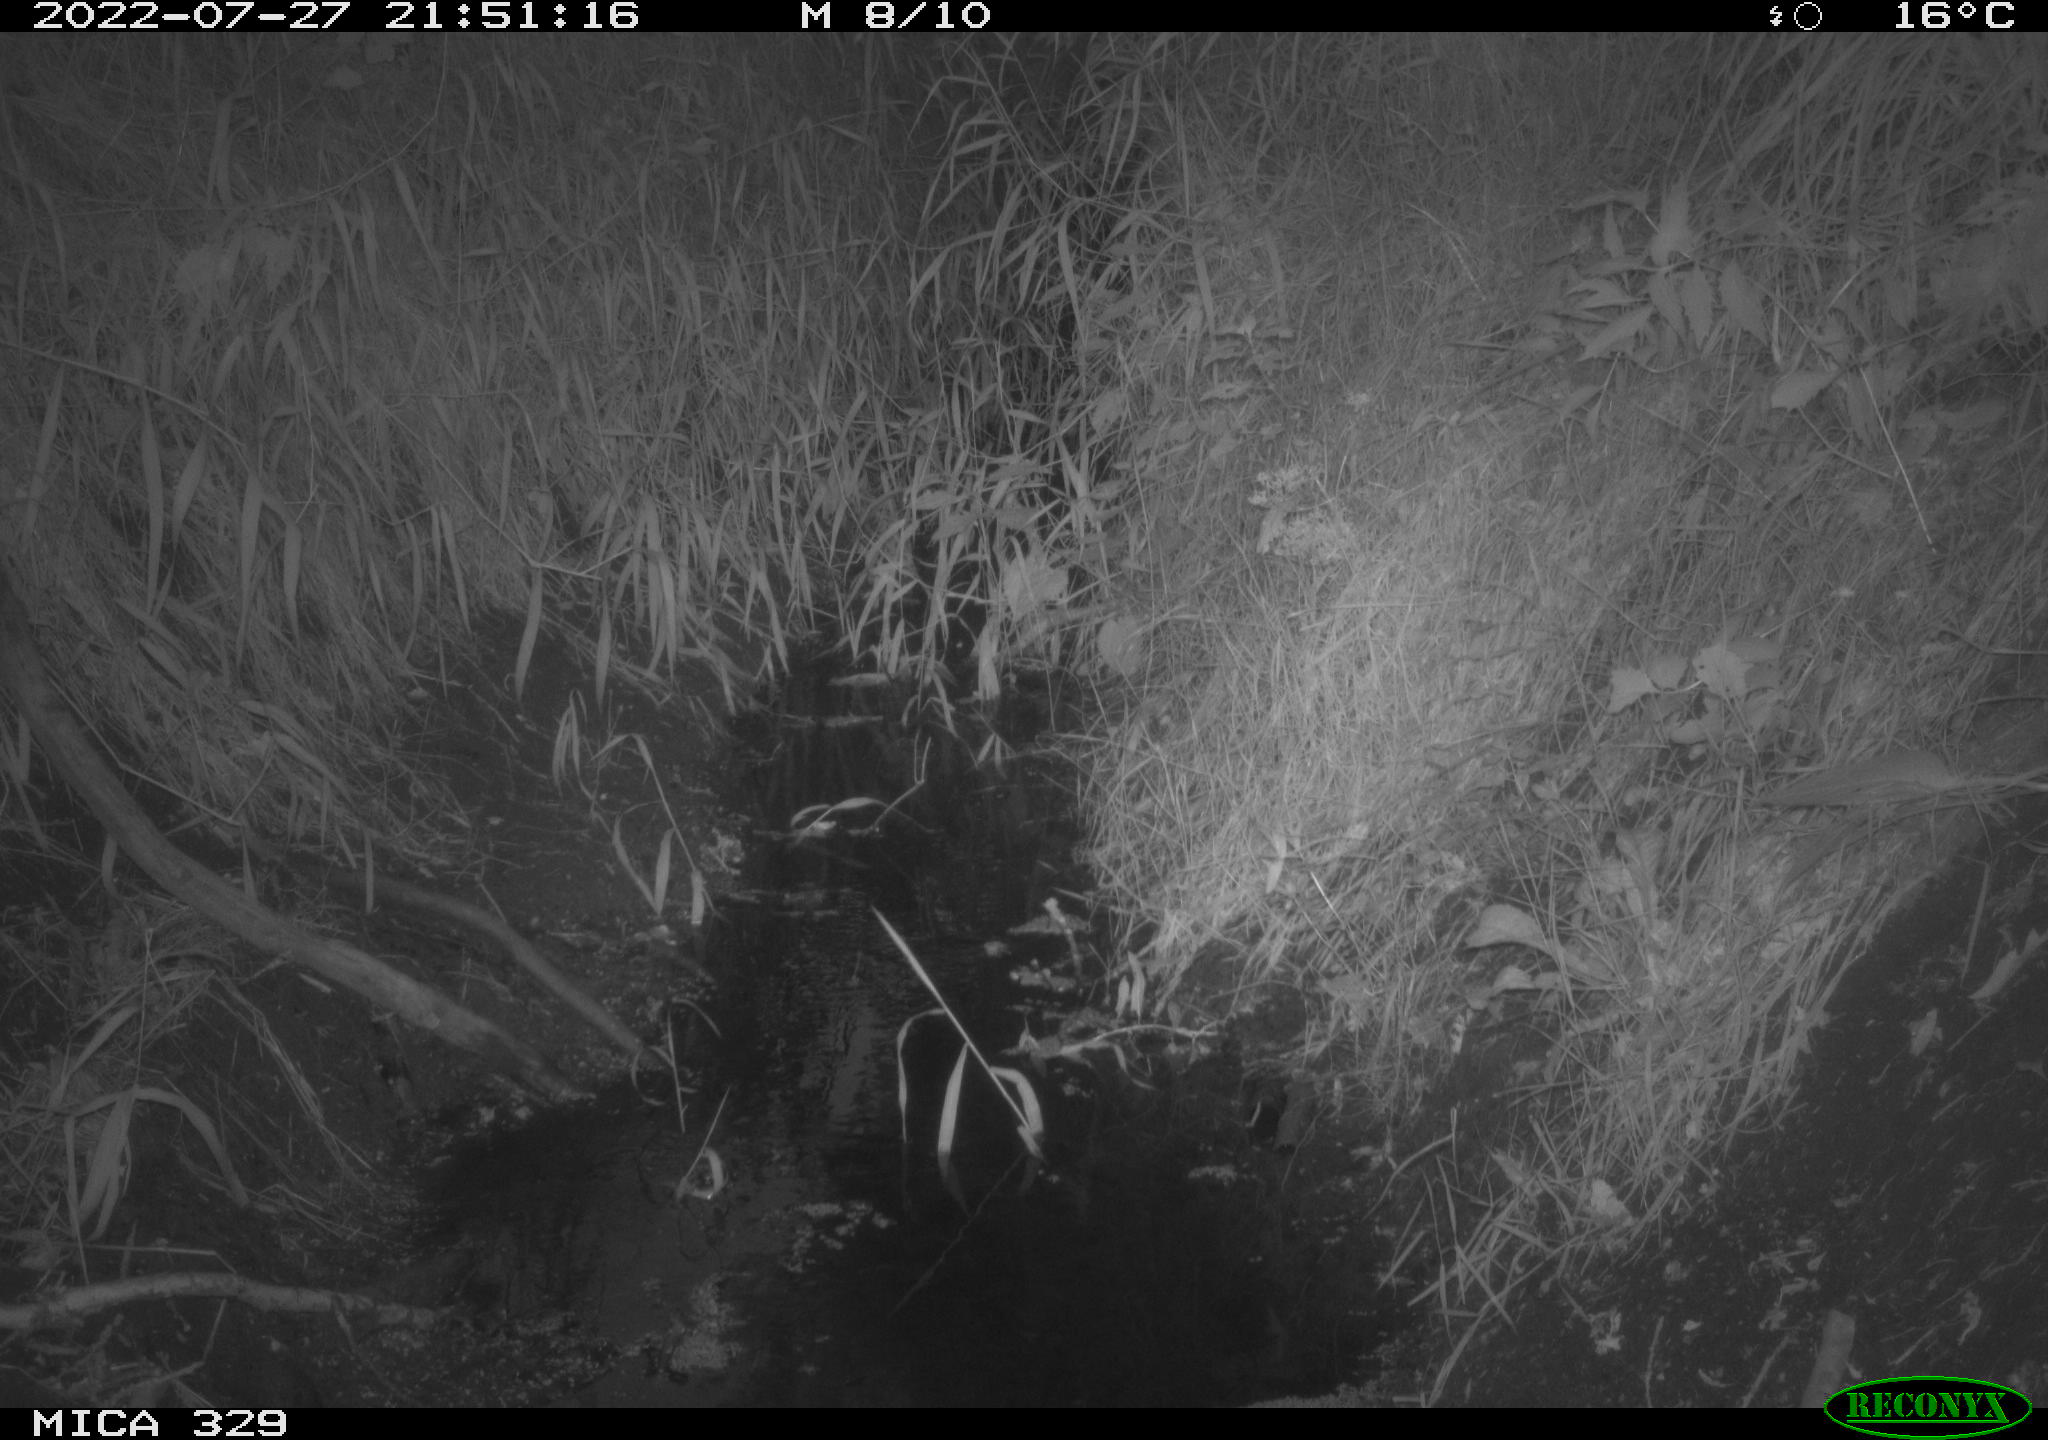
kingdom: Animalia
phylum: Chordata
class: Mammalia
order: Rodentia
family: Muridae
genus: Rattus
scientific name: Rattus norvegicus
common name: Brown rat
